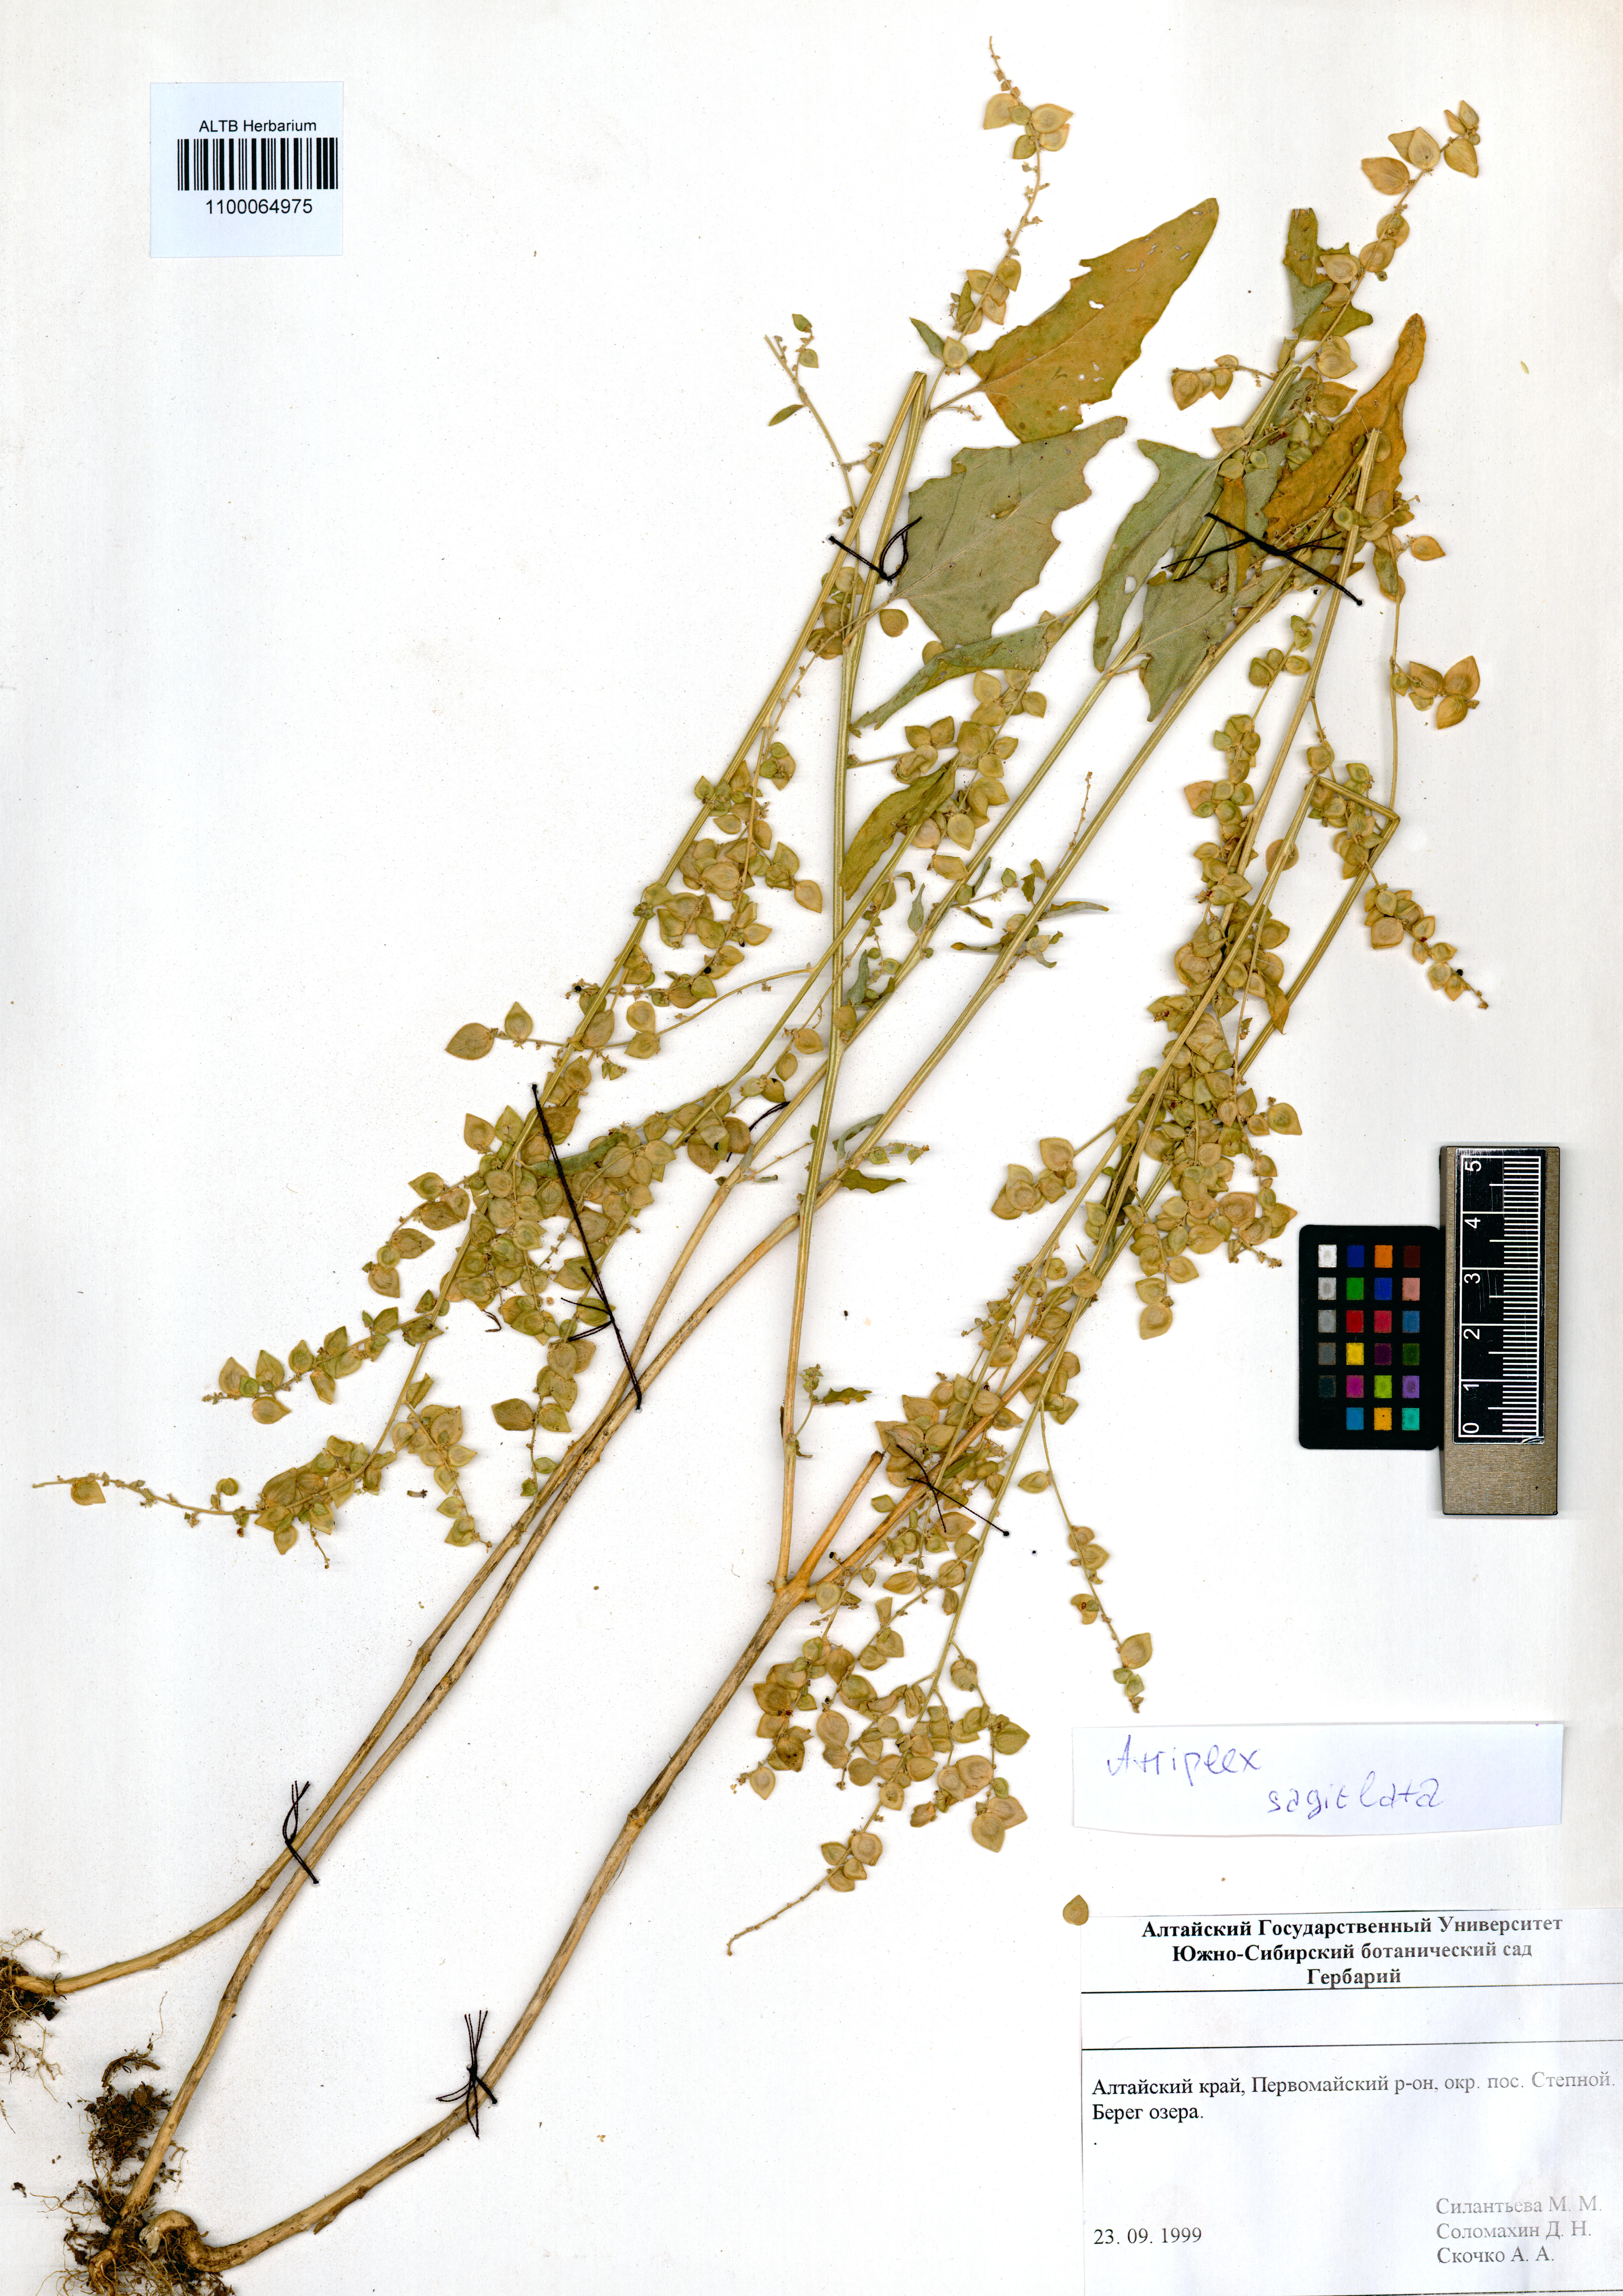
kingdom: Plantae
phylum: Tracheophyta
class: Magnoliopsida
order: Caryophyllales
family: Amaranthaceae
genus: Atriplex
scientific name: Atriplex sagittata
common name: Purple orache
